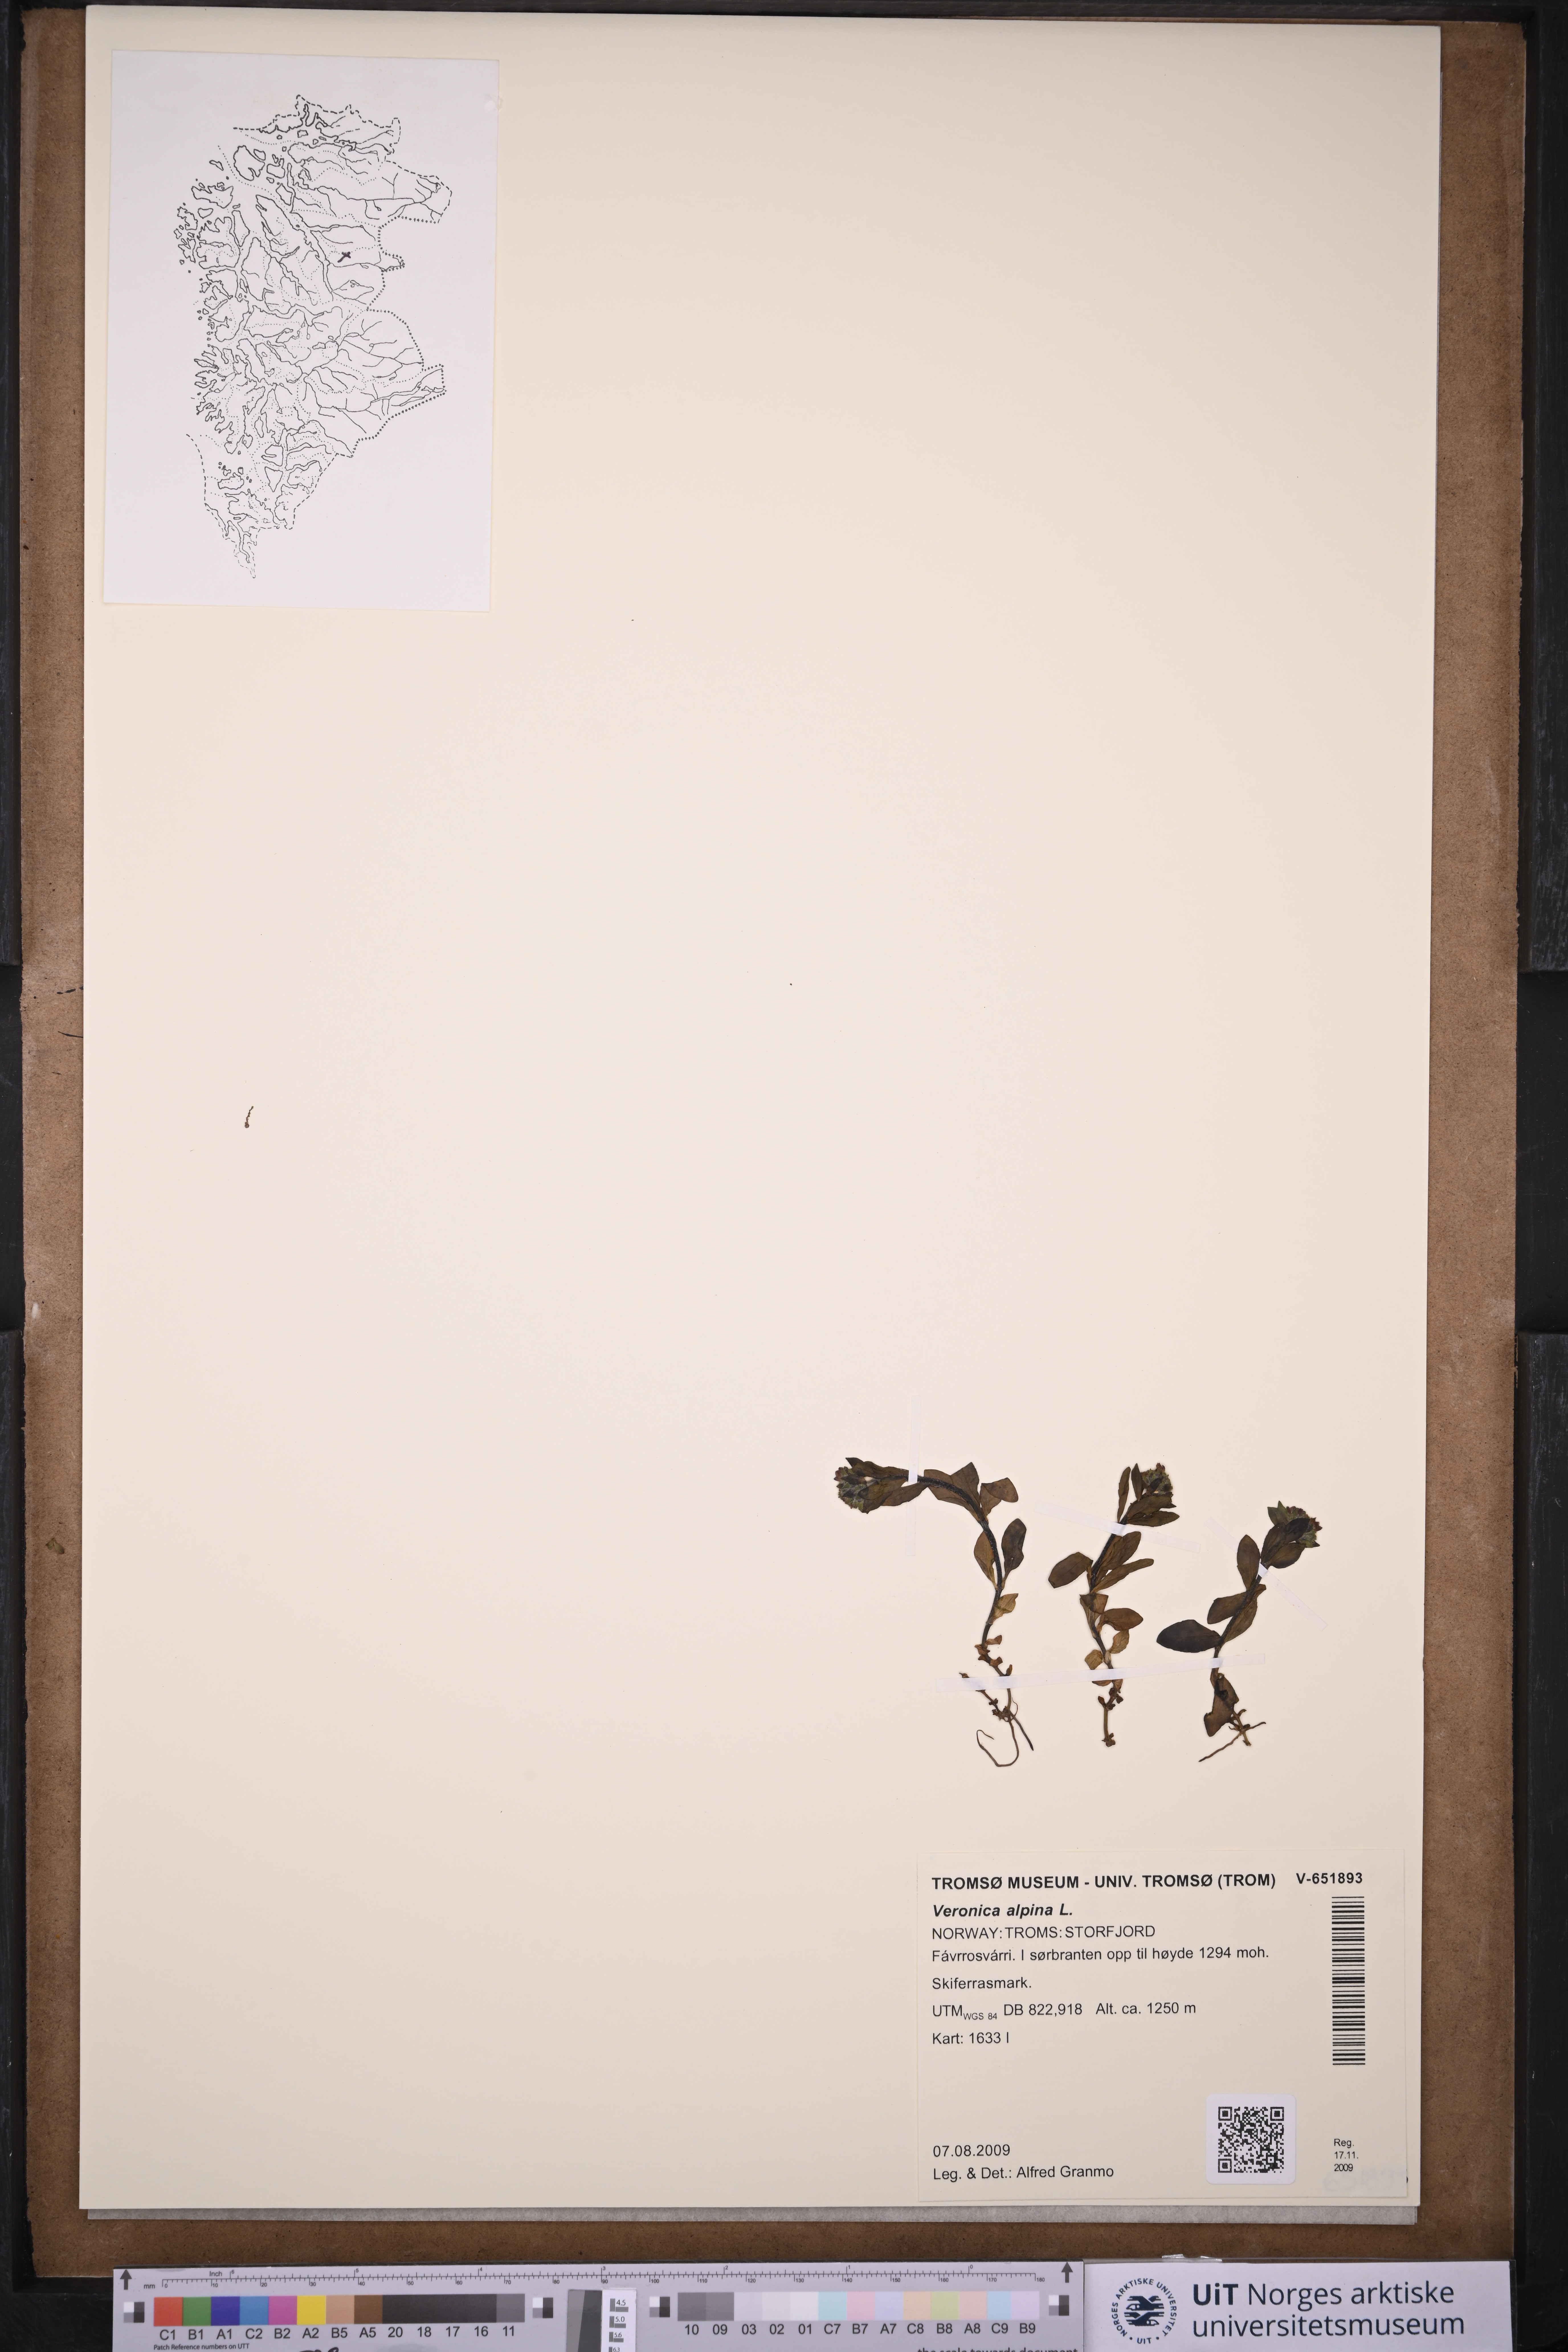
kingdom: Plantae
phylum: Tracheophyta
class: Magnoliopsida
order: Lamiales
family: Plantaginaceae
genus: Veronica
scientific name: Veronica alpina
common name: Alpine speedwell
